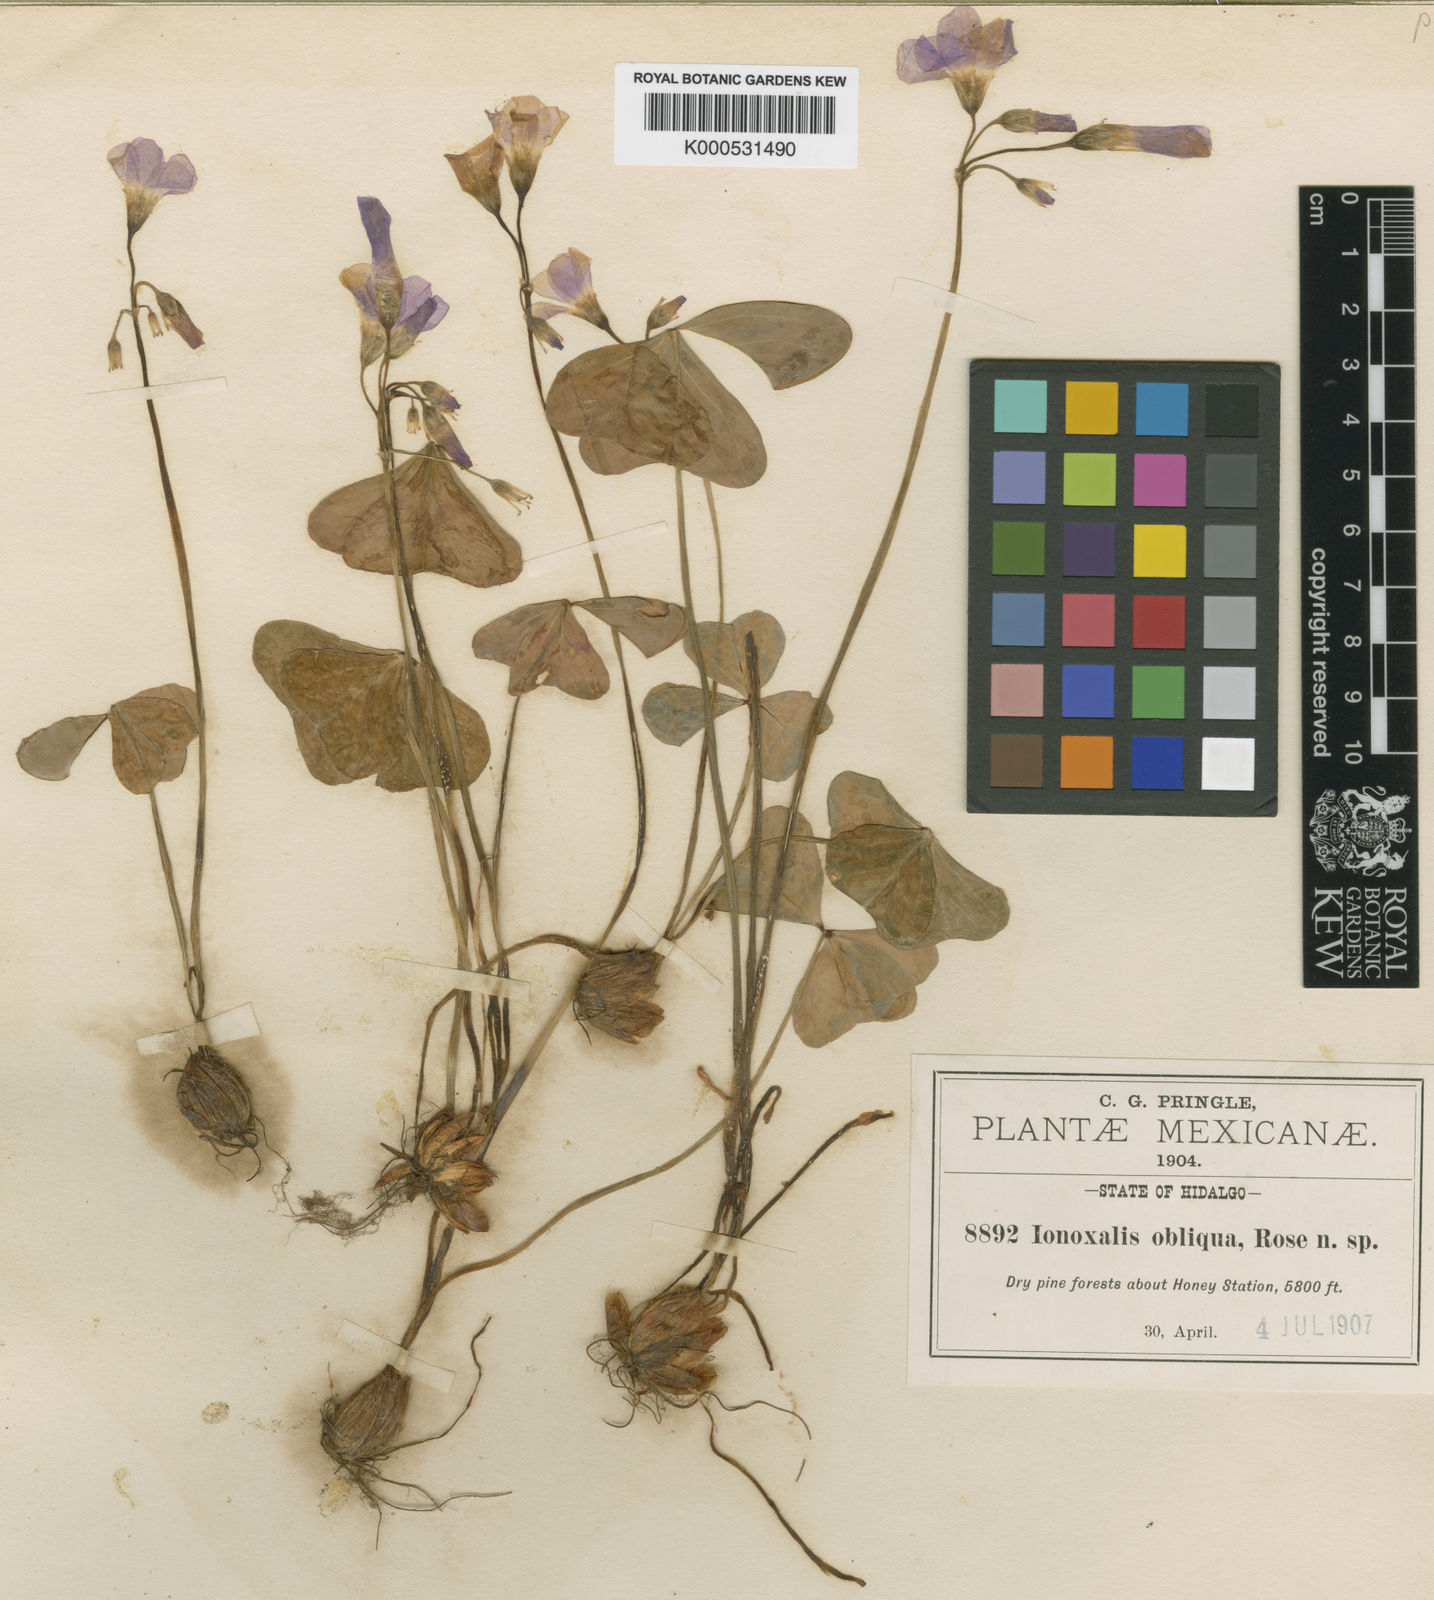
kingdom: Plantae
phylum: Tracheophyta
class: Magnoliopsida
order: Oxalidales
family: Oxalidaceae
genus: Oxalis
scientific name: Oxalis jacquiniana
